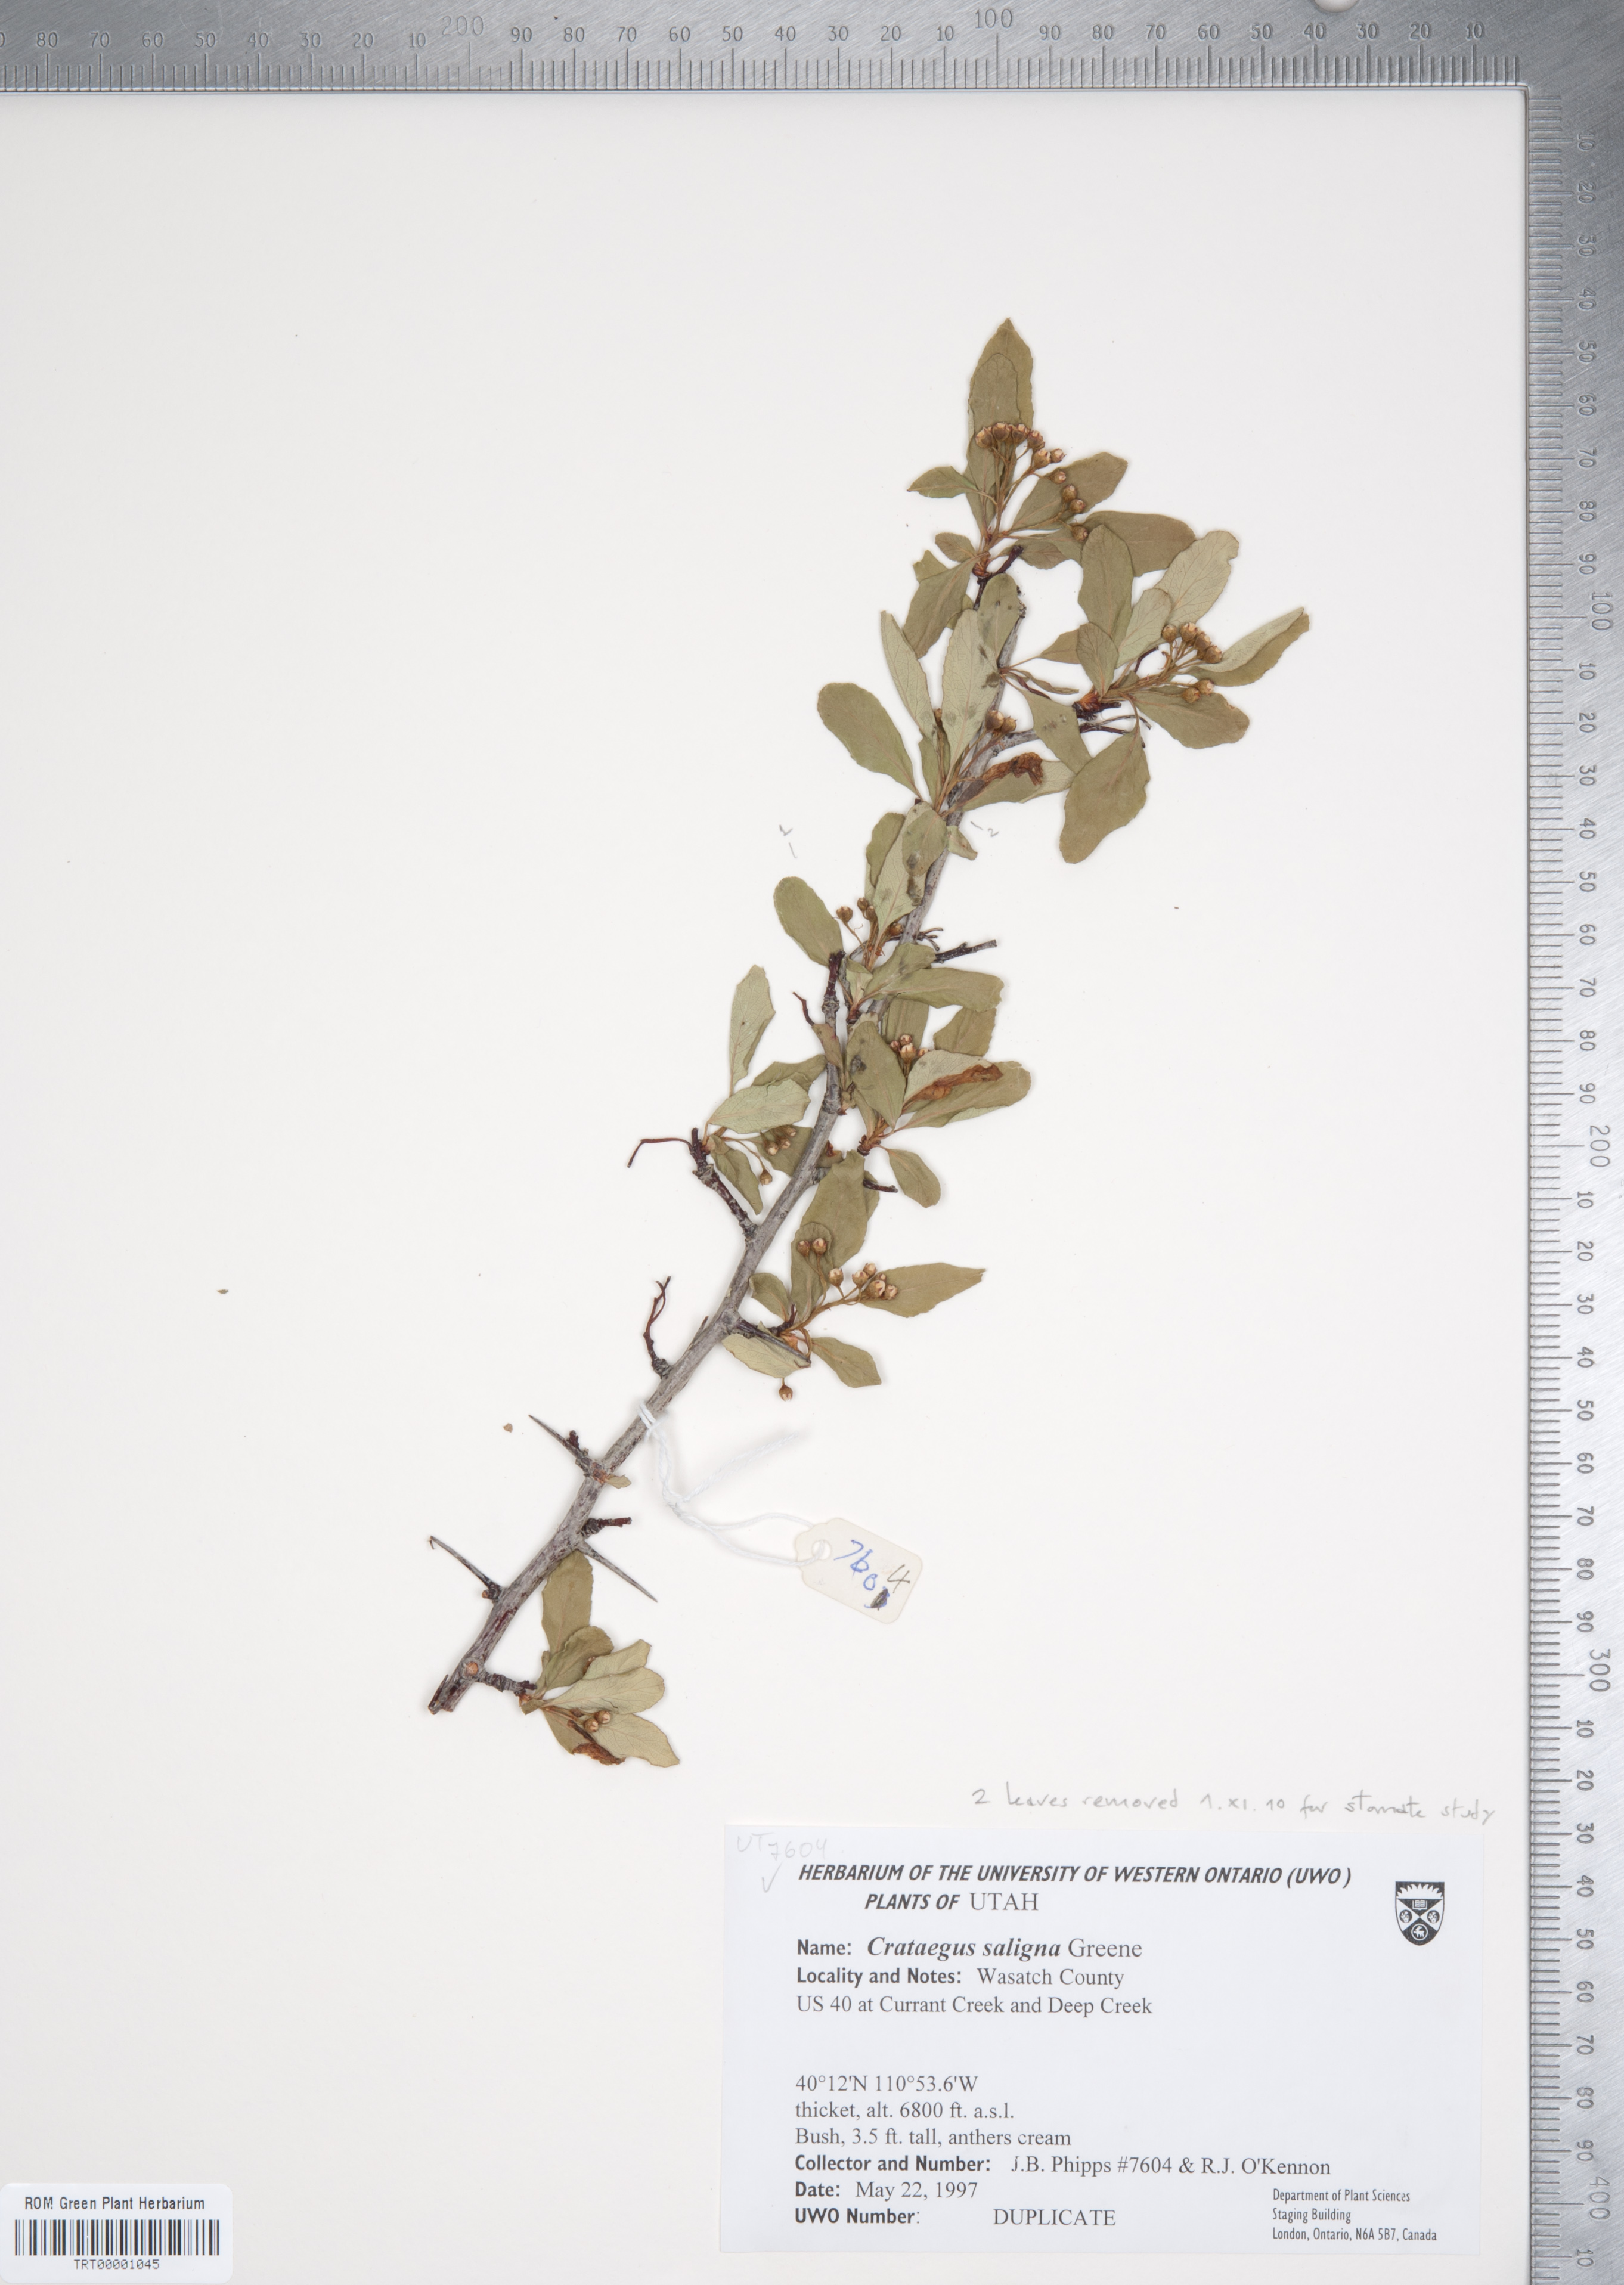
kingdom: Plantae
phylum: Tracheophyta
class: Magnoliopsida
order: Rosales
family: Rosaceae
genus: Crataegus
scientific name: Crataegus saligna
